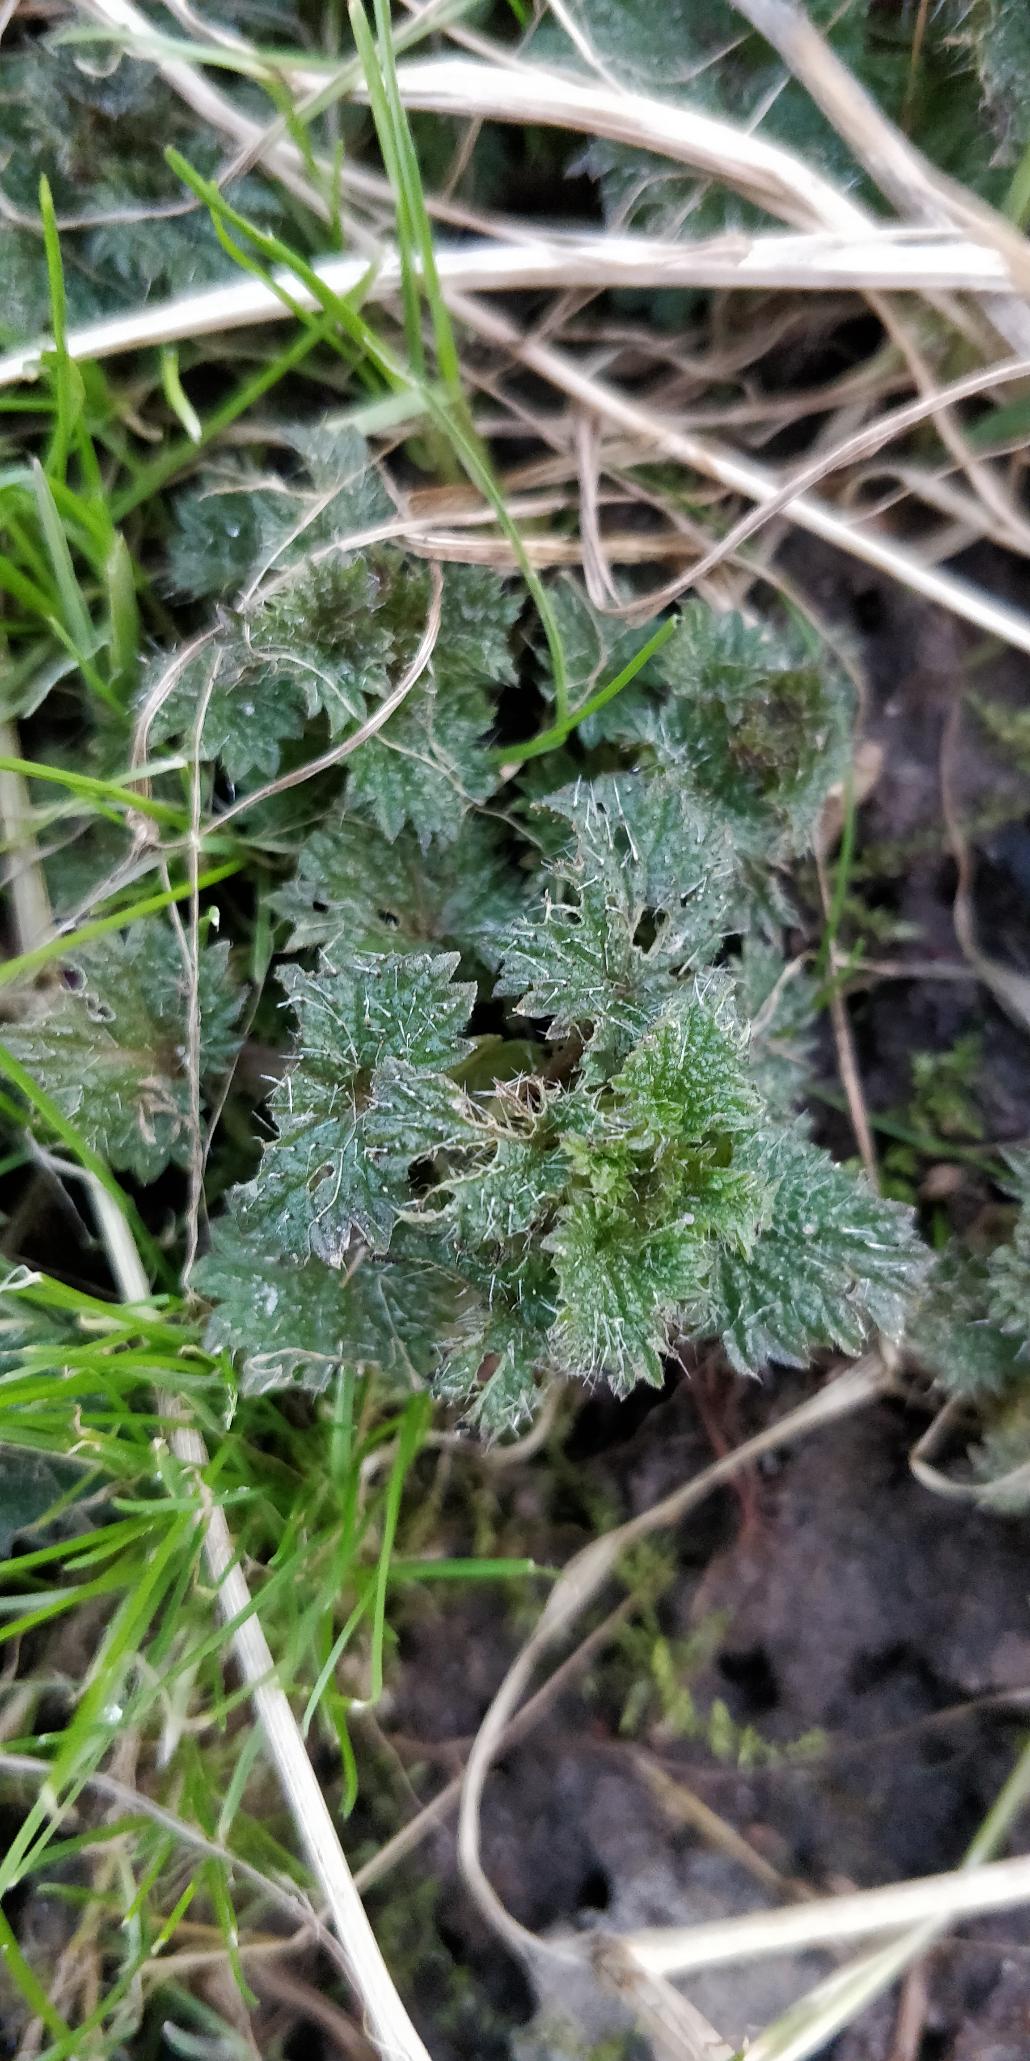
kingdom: Plantae
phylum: Tracheophyta
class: Magnoliopsida
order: Rosales
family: Urticaceae
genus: Urtica
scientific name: Urtica dioica
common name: Stor nælde
